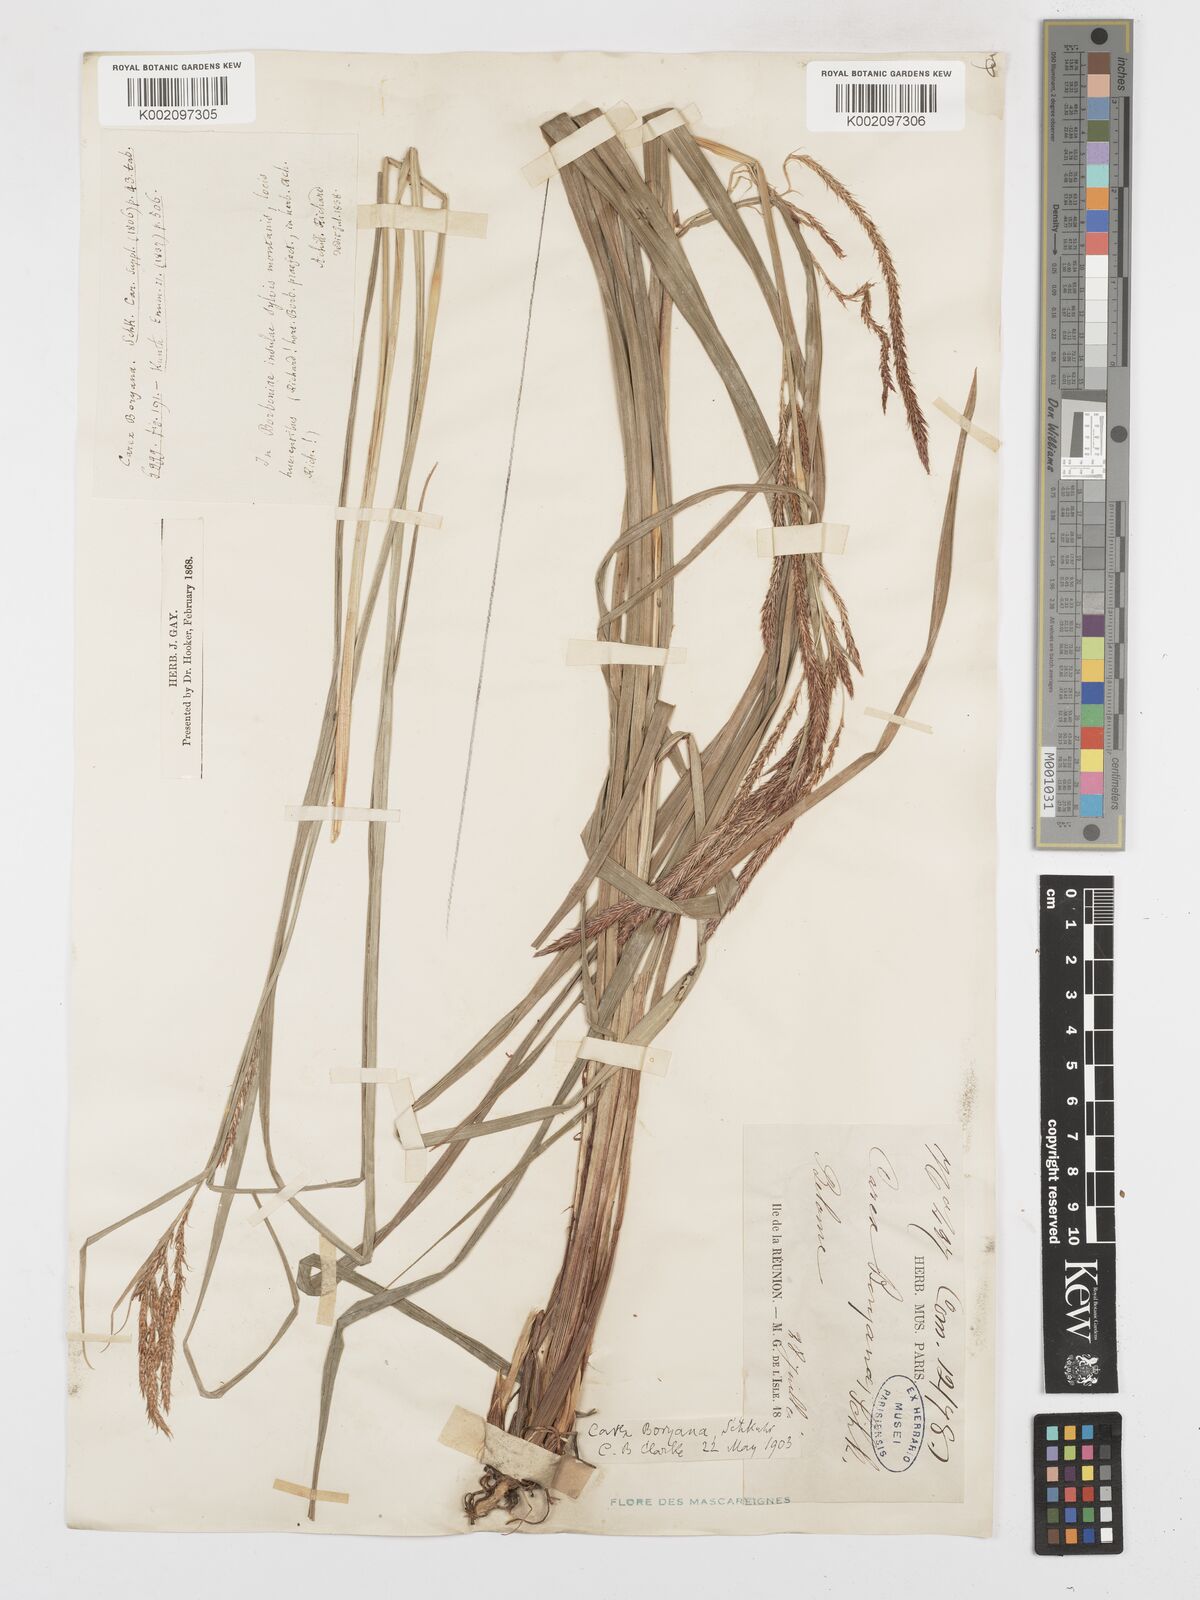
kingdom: Plantae
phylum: Tracheophyta
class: Liliopsida
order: Poales
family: Cyperaceae
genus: Carex
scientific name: Carex boryana
